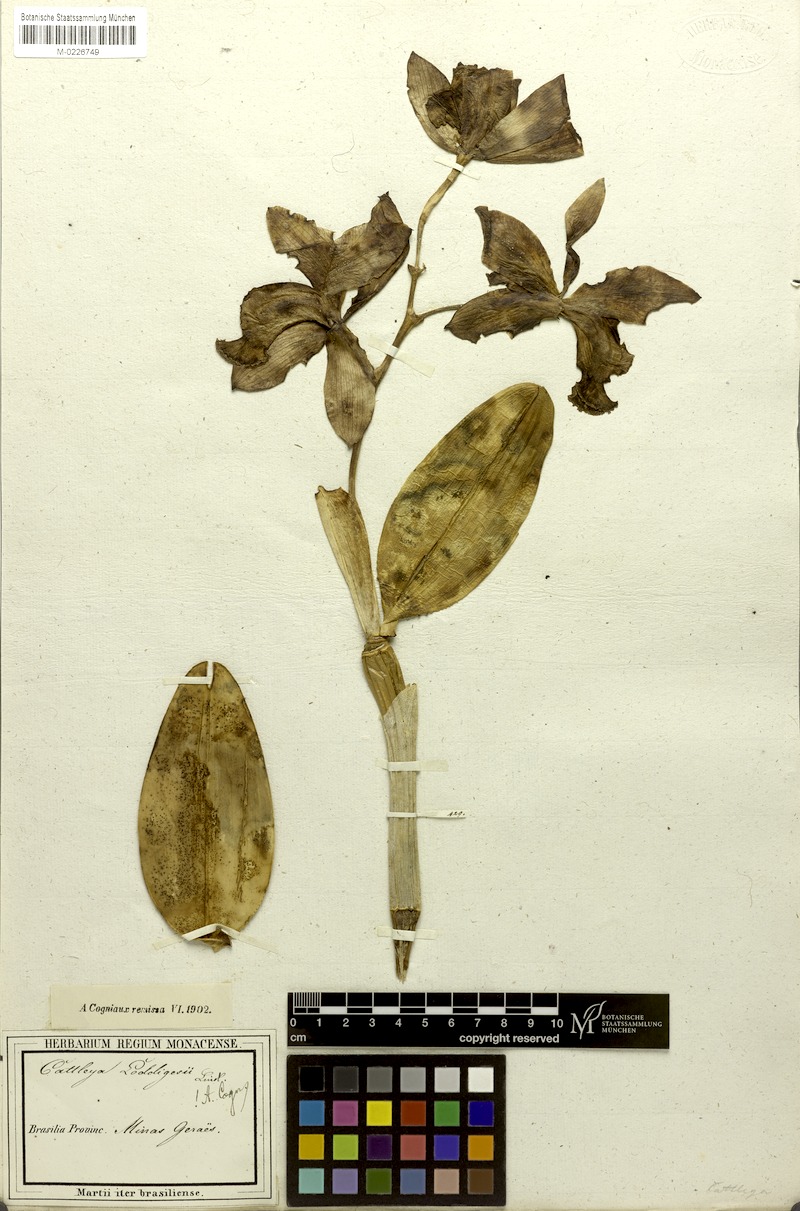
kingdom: Plantae
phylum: Tracheophyta
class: Liliopsida
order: Asparagales
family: Orchidaceae
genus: Cattleya
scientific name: Cattleya loddigesii
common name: Loddiges's cattleya
